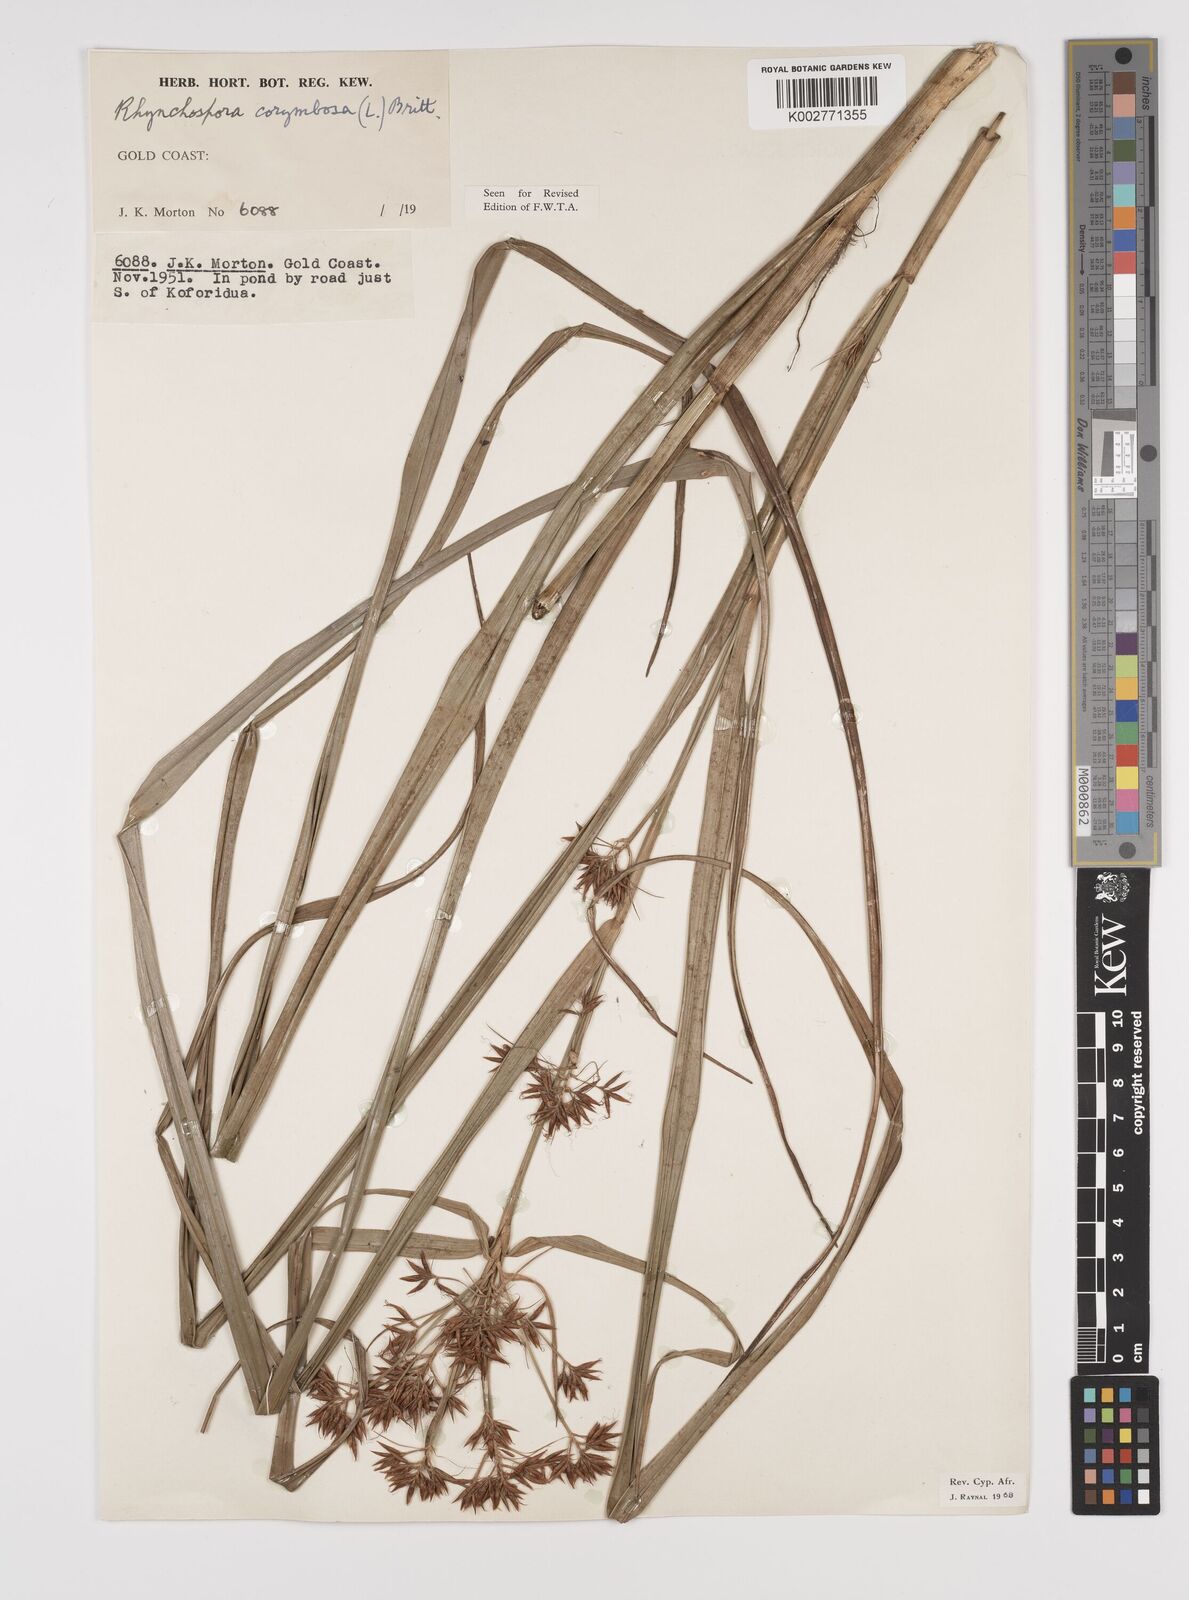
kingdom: Plantae
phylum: Tracheophyta
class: Liliopsida
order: Poales
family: Cyperaceae
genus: Rhynchospora
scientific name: Rhynchospora corymbosa
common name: Golden beak sedge
